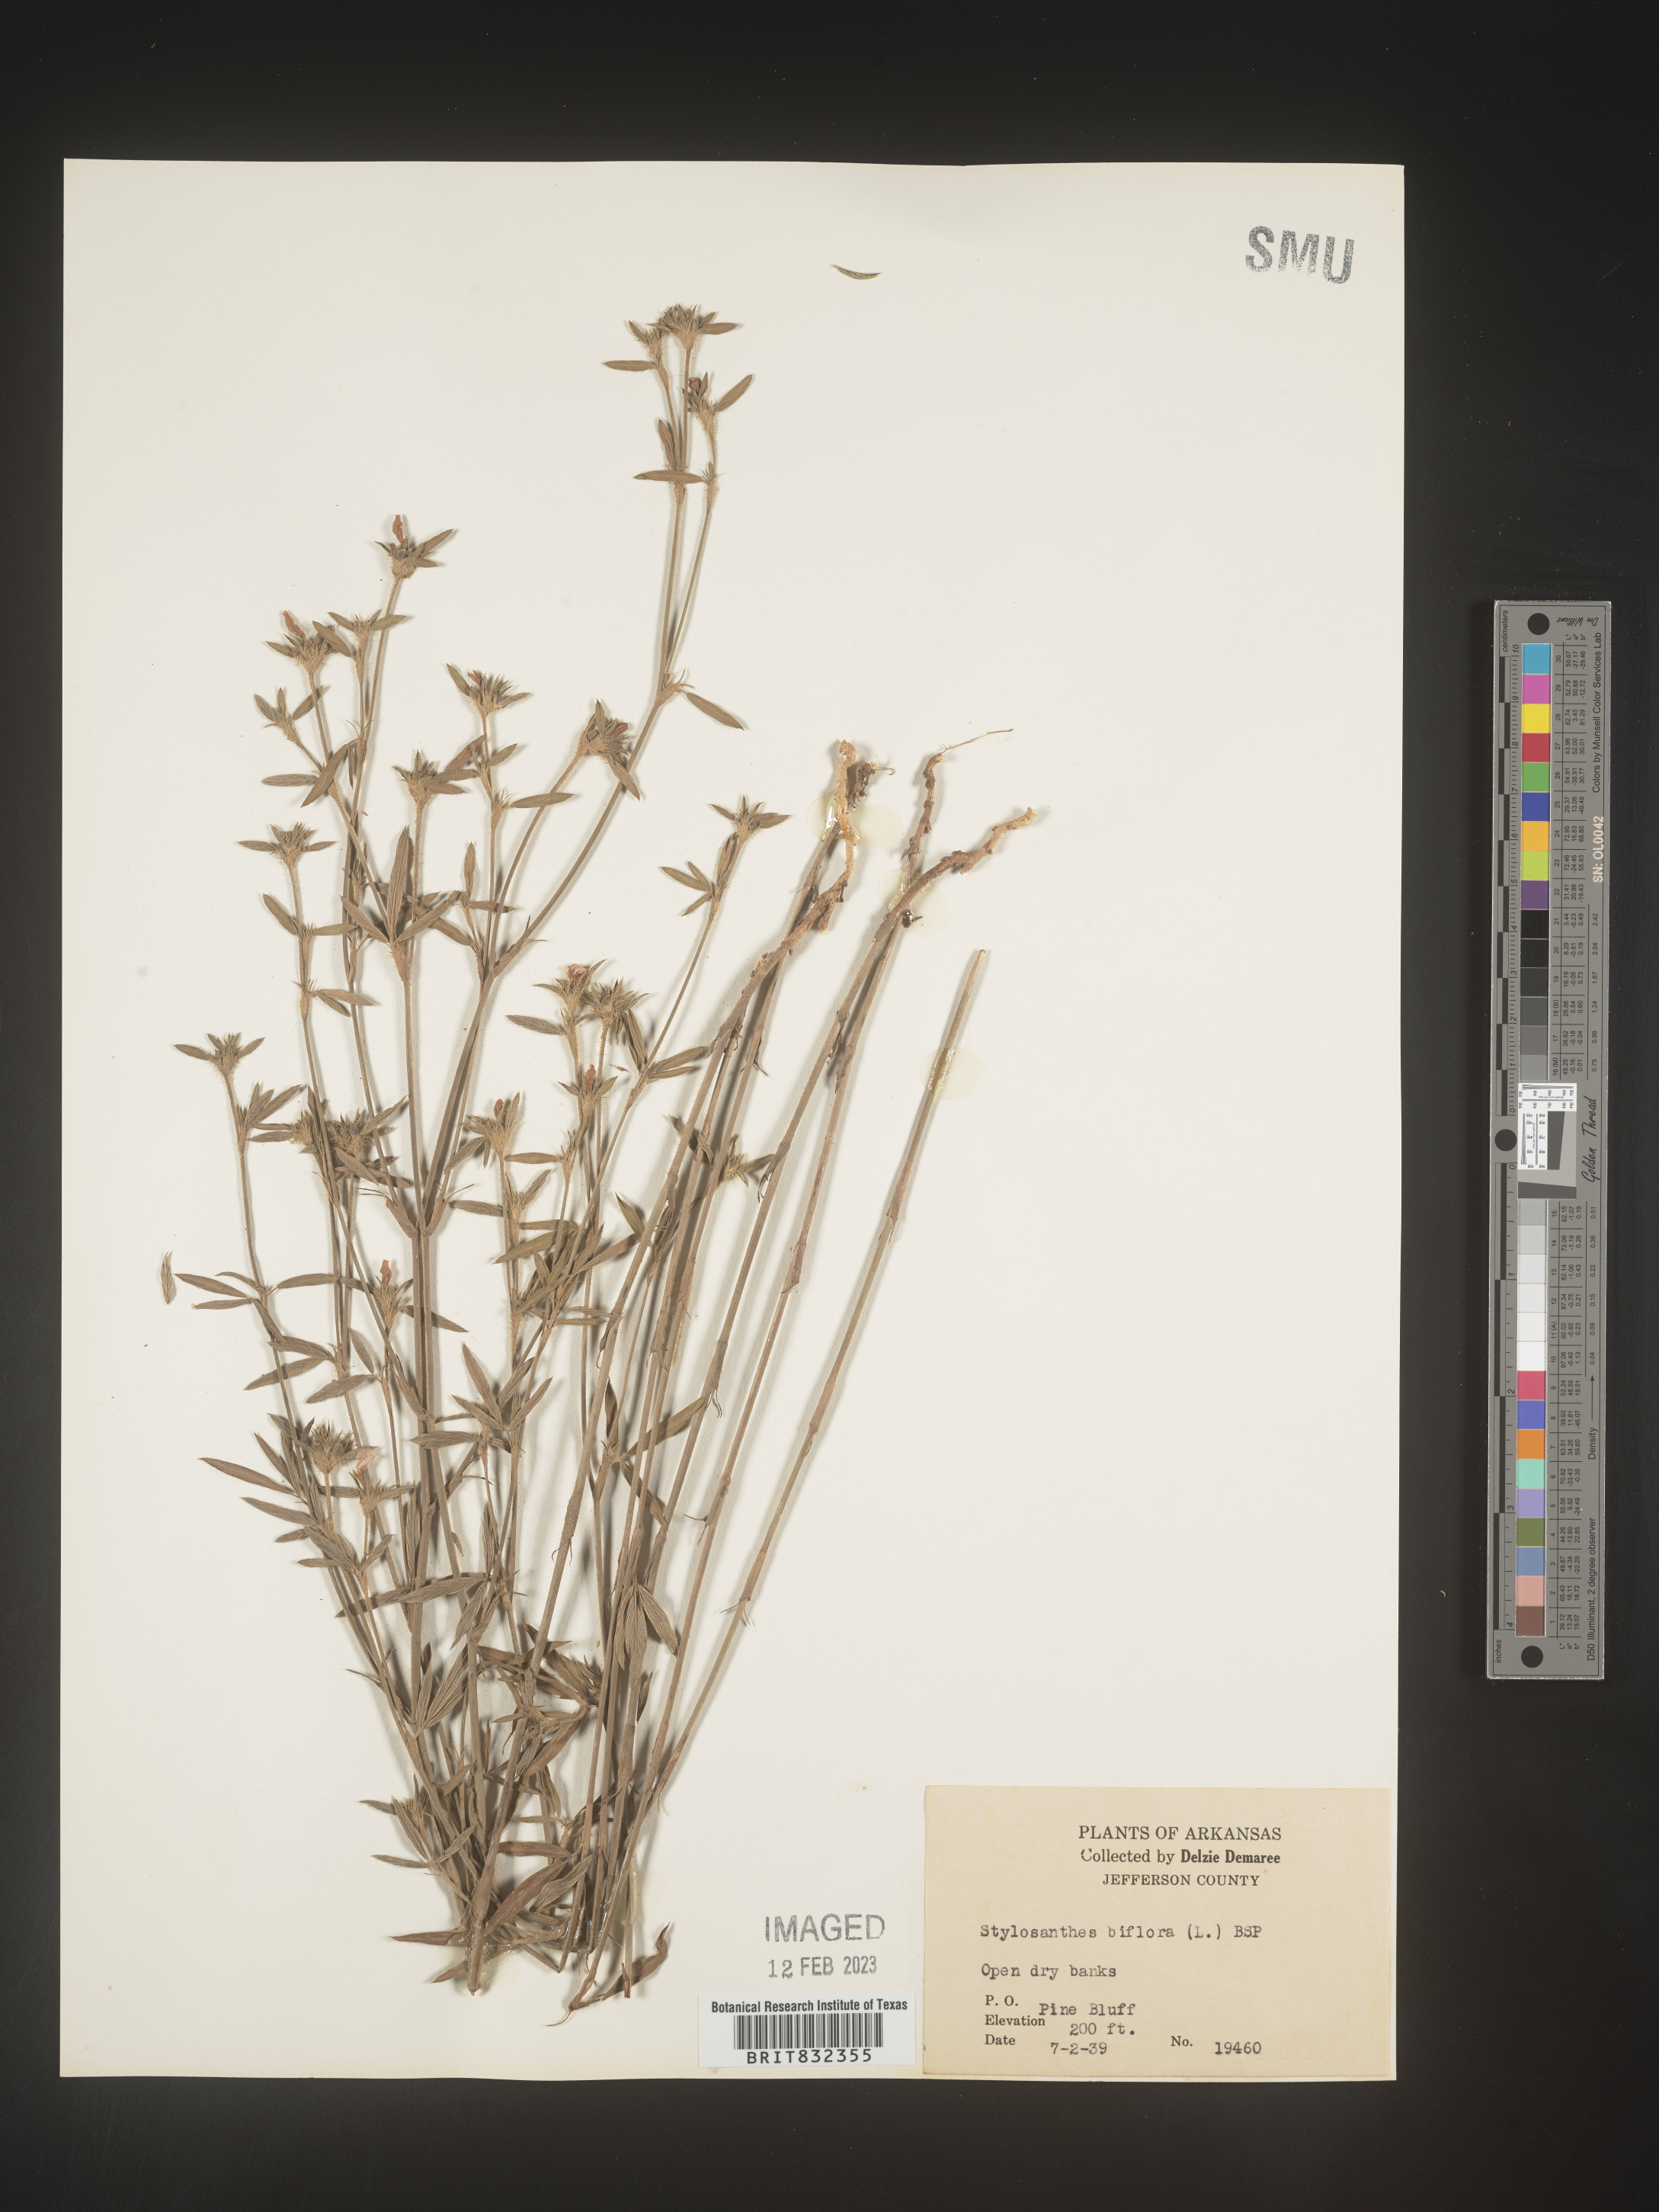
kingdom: Plantae
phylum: Tracheophyta
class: Magnoliopsida
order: Fabales
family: Fabaceae
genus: Stylosanthes
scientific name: Stylosanthes biflora
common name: Two-flower pencil-flower
